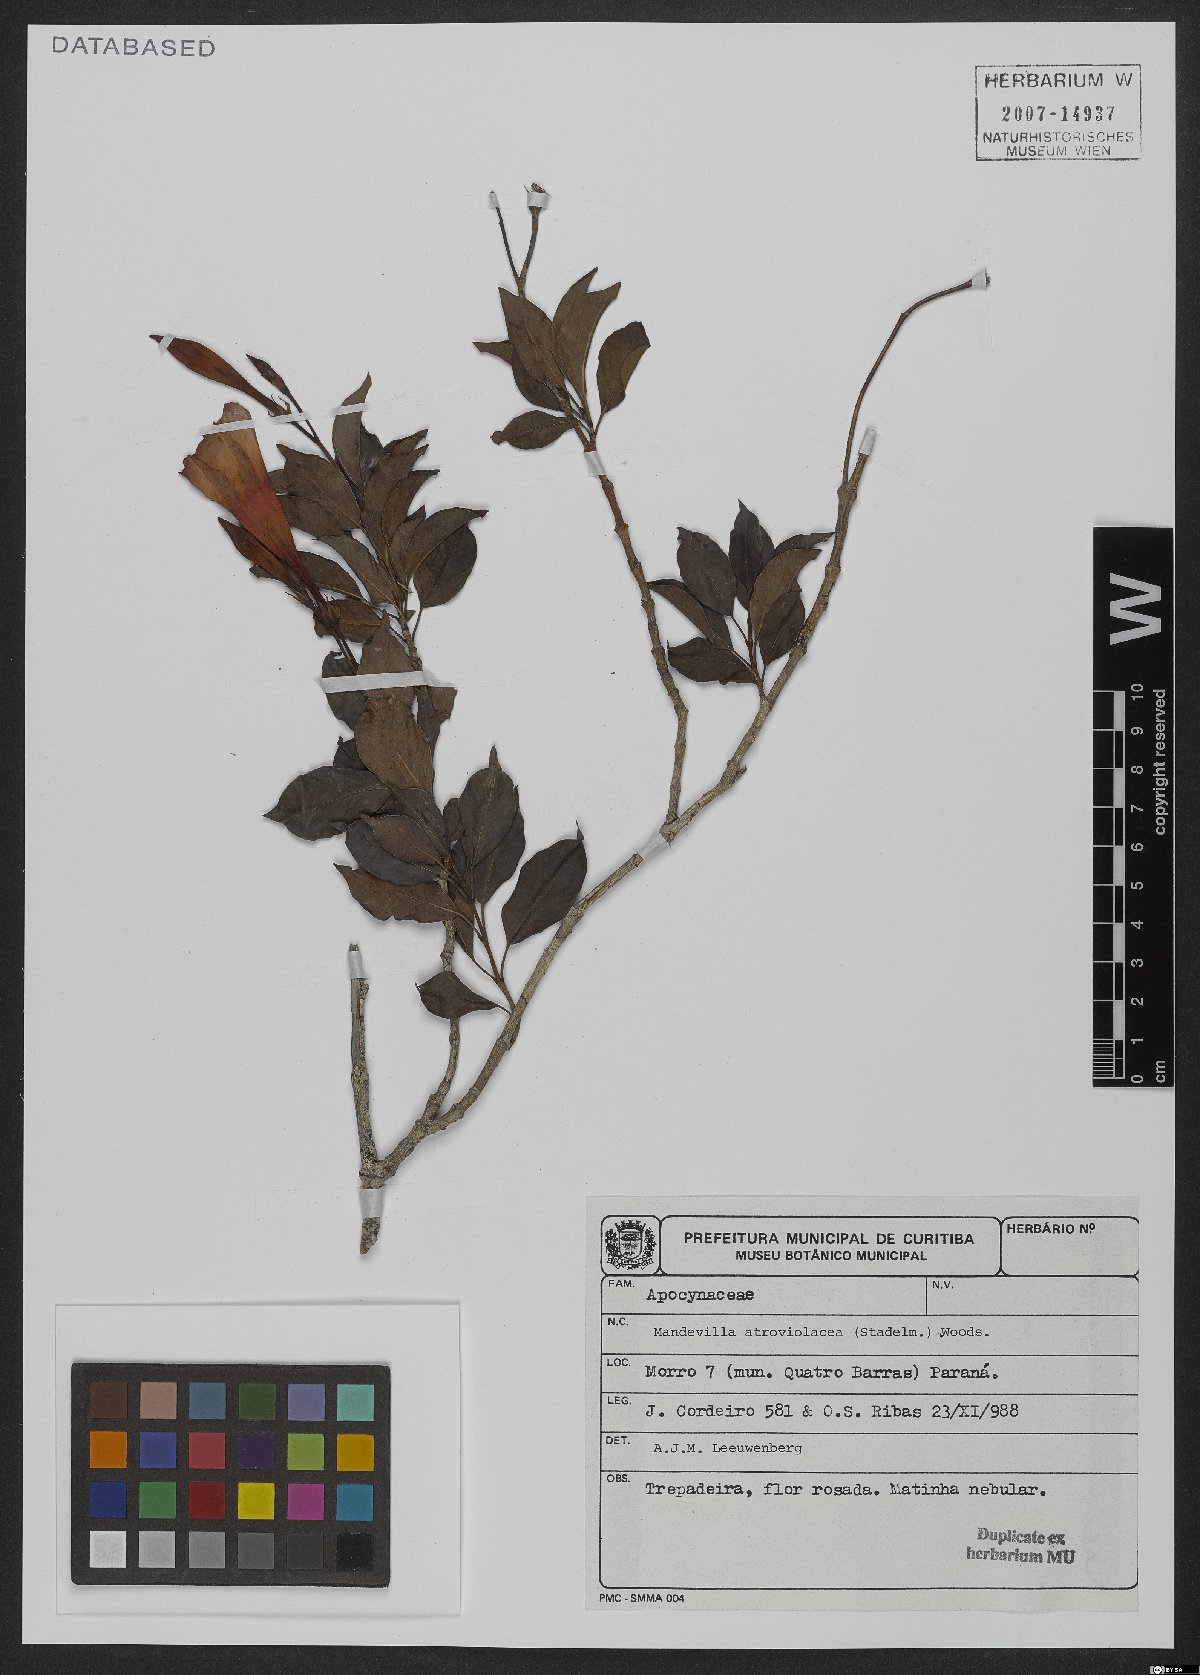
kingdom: Plantae
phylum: Tracheophyta
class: Magnoliopsida
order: Gentianales
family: Apocynaceae
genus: Mandevilla
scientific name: Mandevilla atroviolacea
